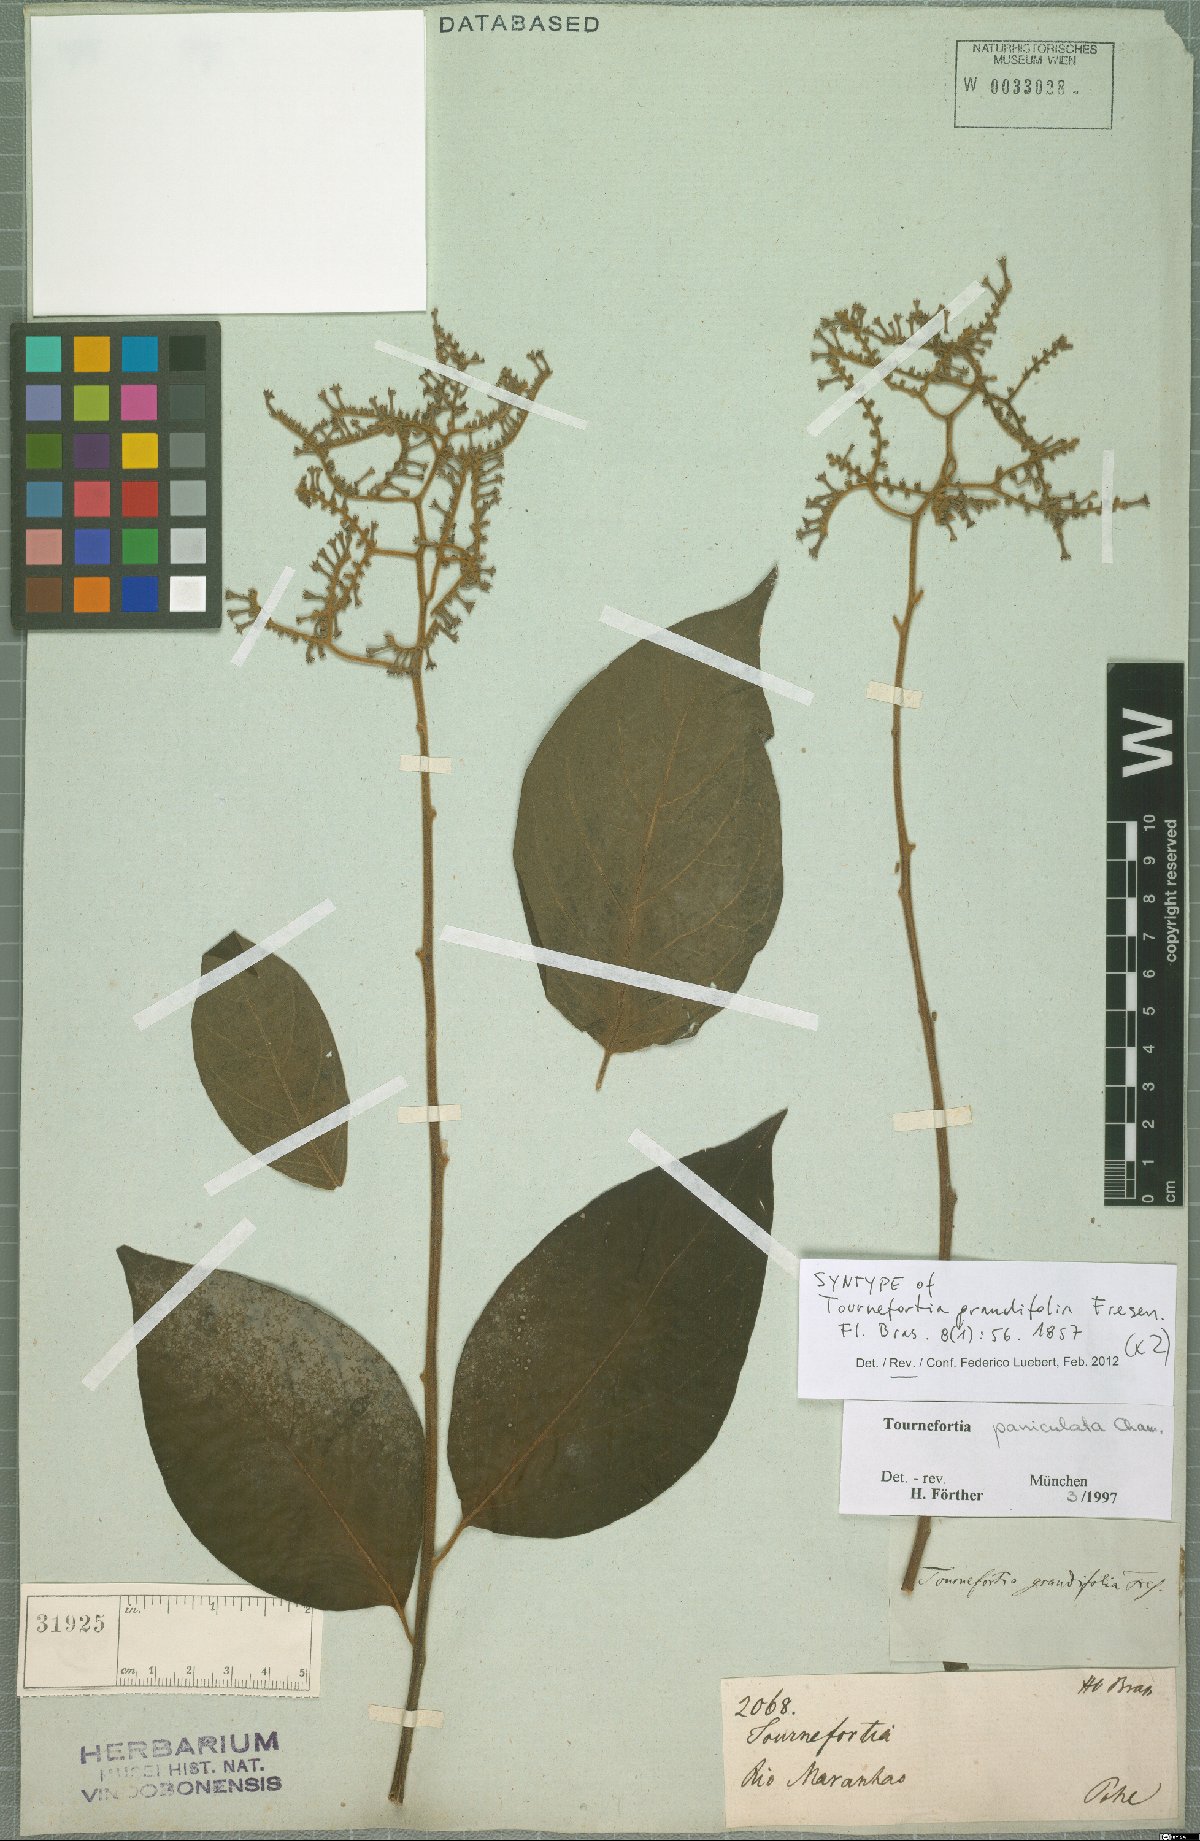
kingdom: Plantae
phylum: Tracheophyta
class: Magnoliopsida
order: Boraginales
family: Heliotropiaceae
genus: Myriopus
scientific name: Myriopus paniculatus
